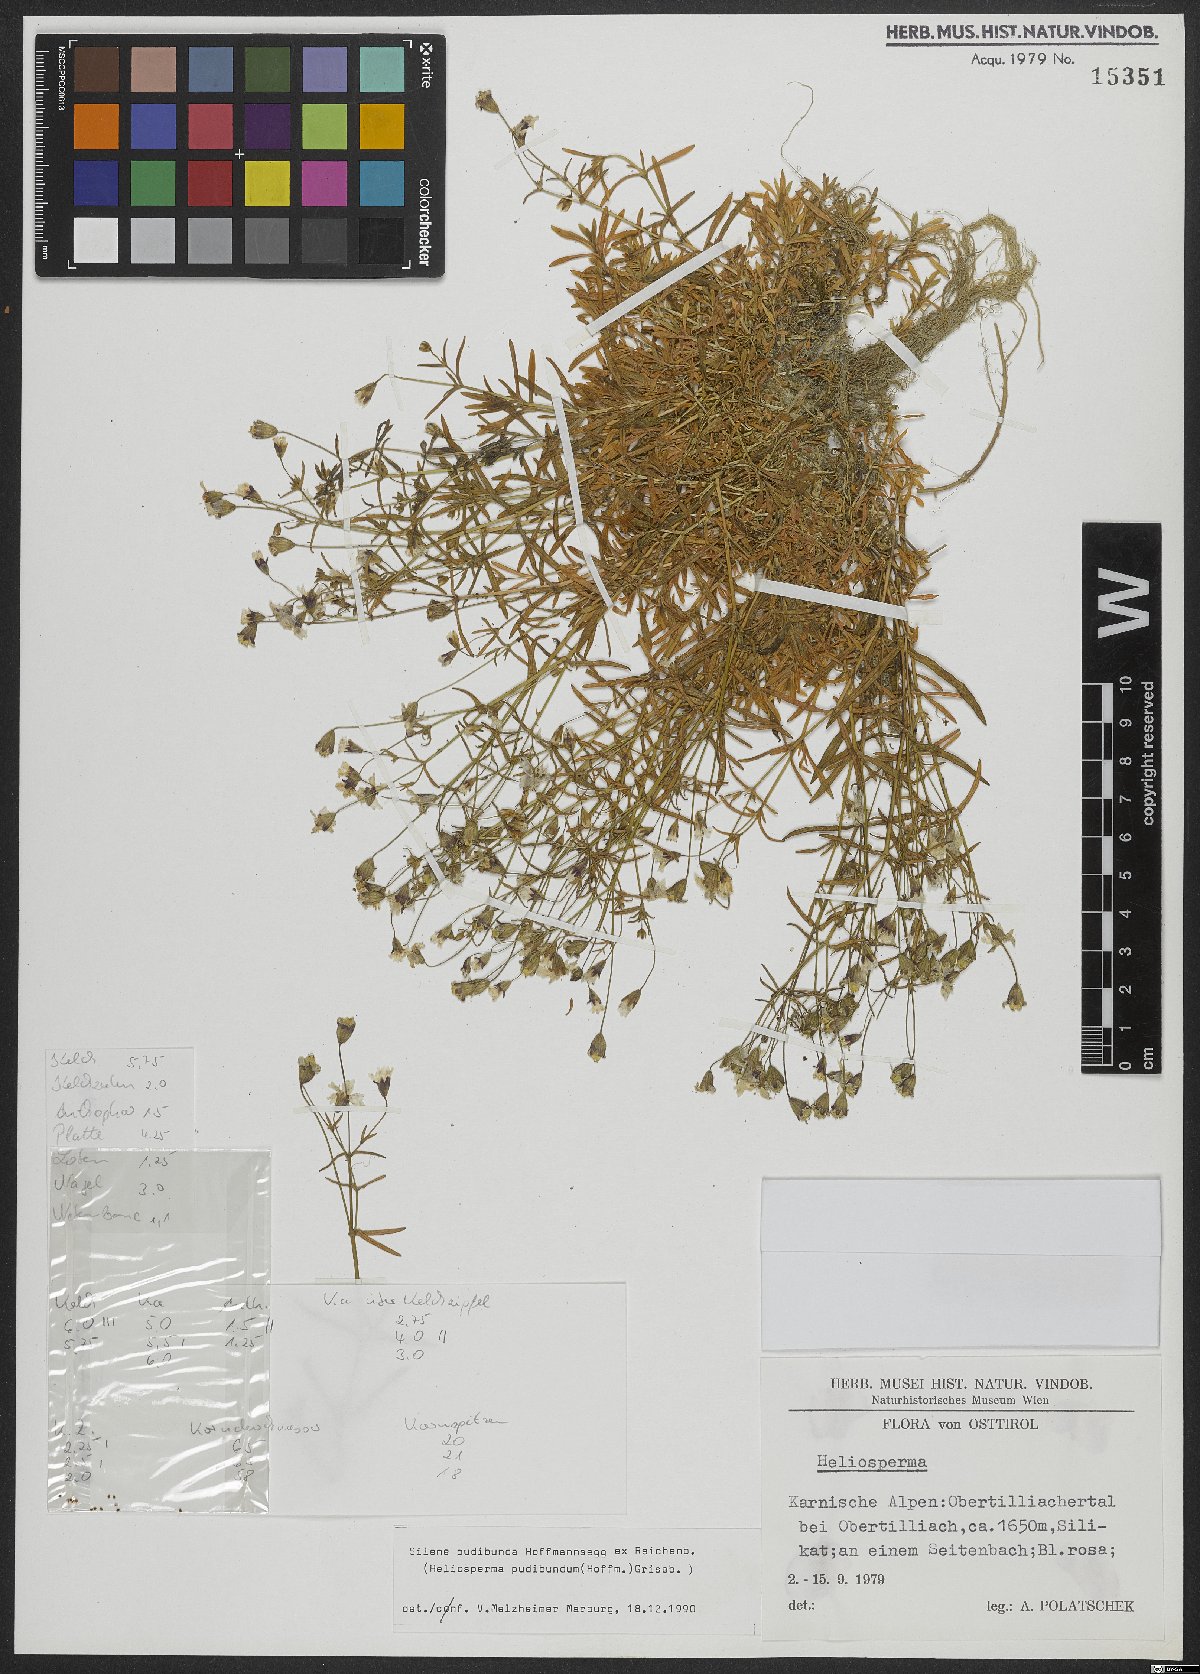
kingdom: Plantae
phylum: Tracheophyta
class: Magnoliopsida
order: Caryophyllales
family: Caryophyllaceae
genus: Heliosperma
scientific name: Heliosperma pudibundum
